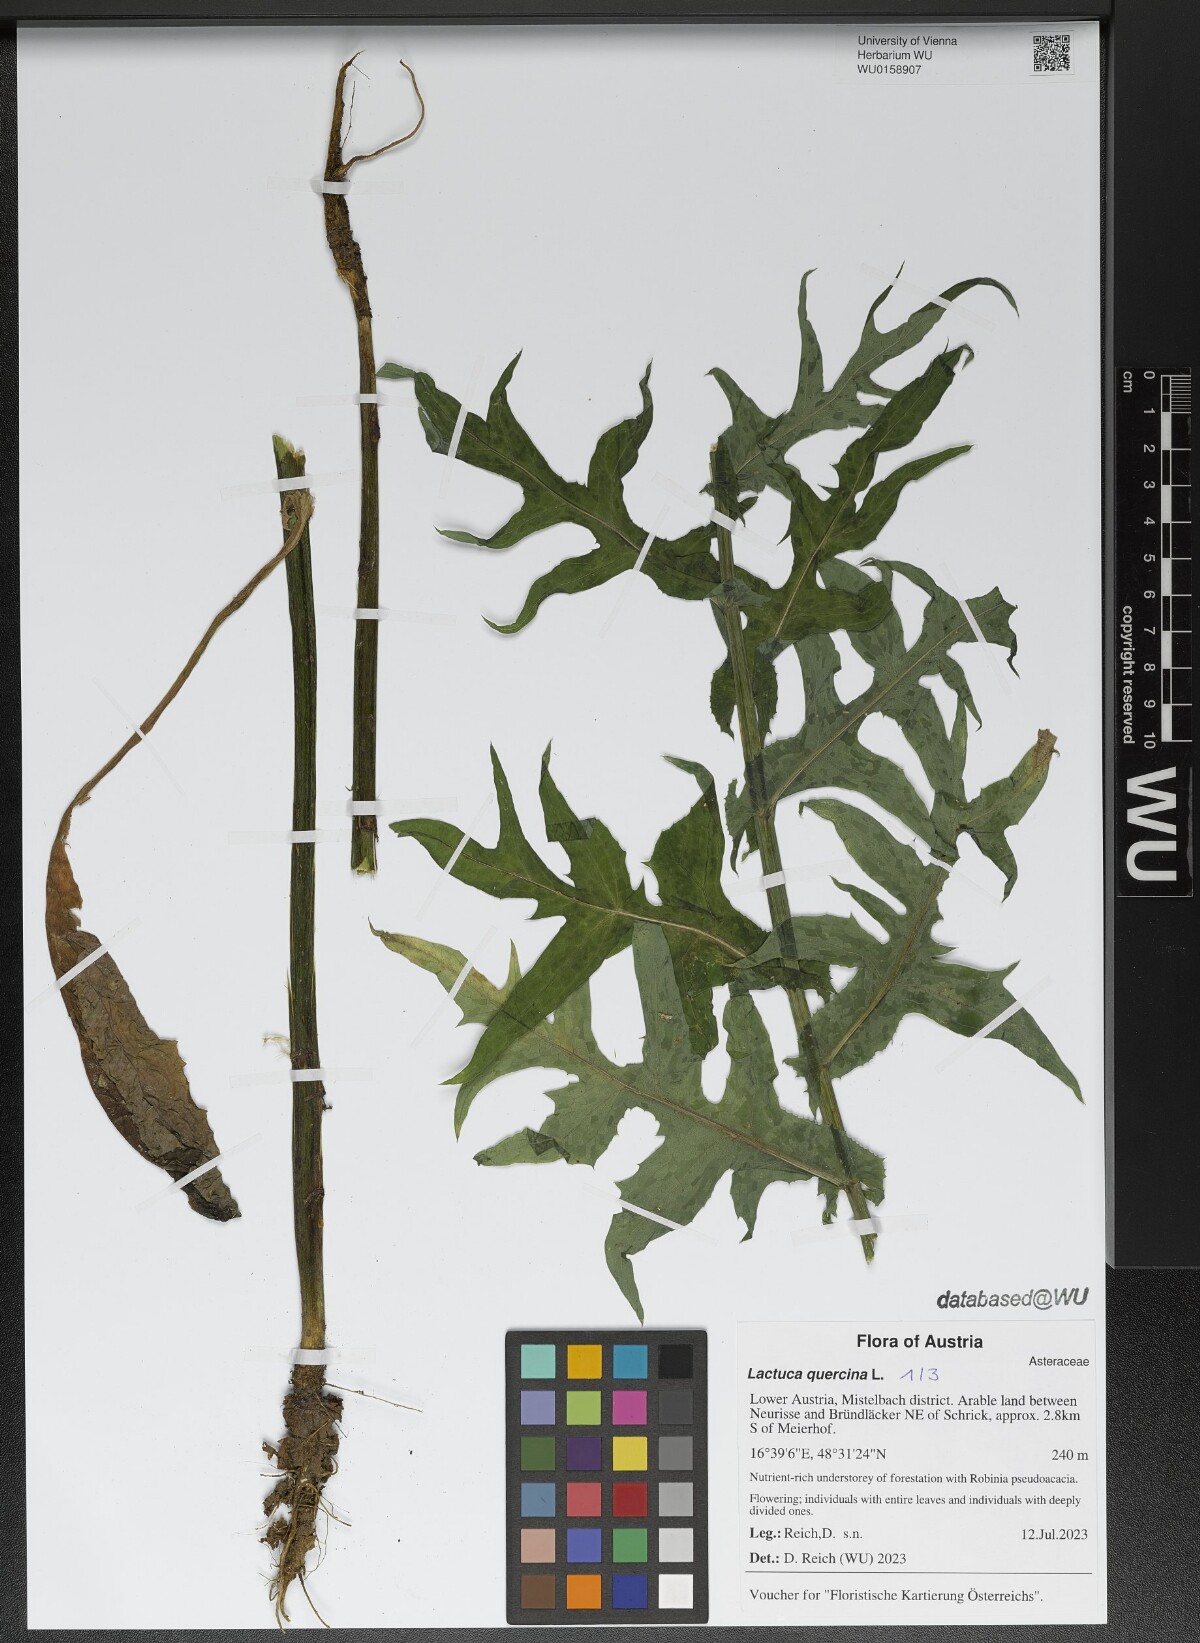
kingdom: Plantae
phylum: Tracheophyta
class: Magnoliopsida
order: Asterales
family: Asteraceae
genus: Lactuca
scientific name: Lactuca quercina
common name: Wild lettuce
